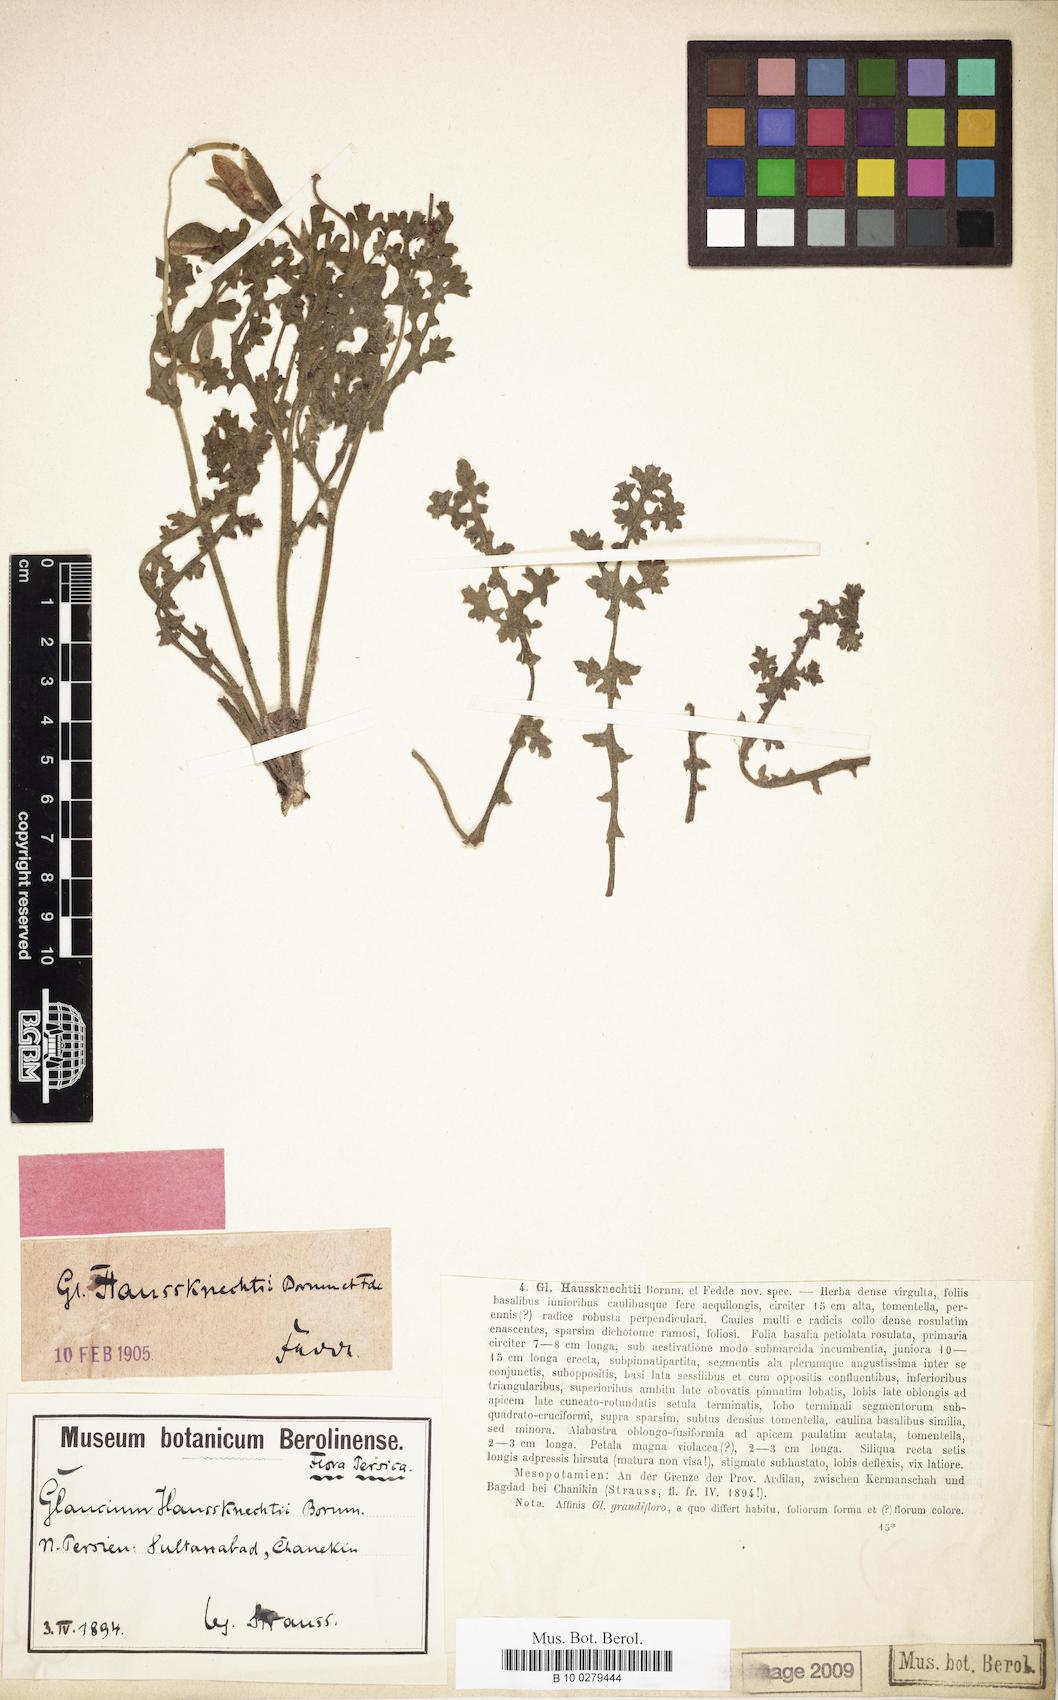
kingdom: Plantae
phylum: Tracheophyta
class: Magnoliopsida
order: Ranunculales
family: Papaveraceae
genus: Glaucium
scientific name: Glaucium grandiflorum
